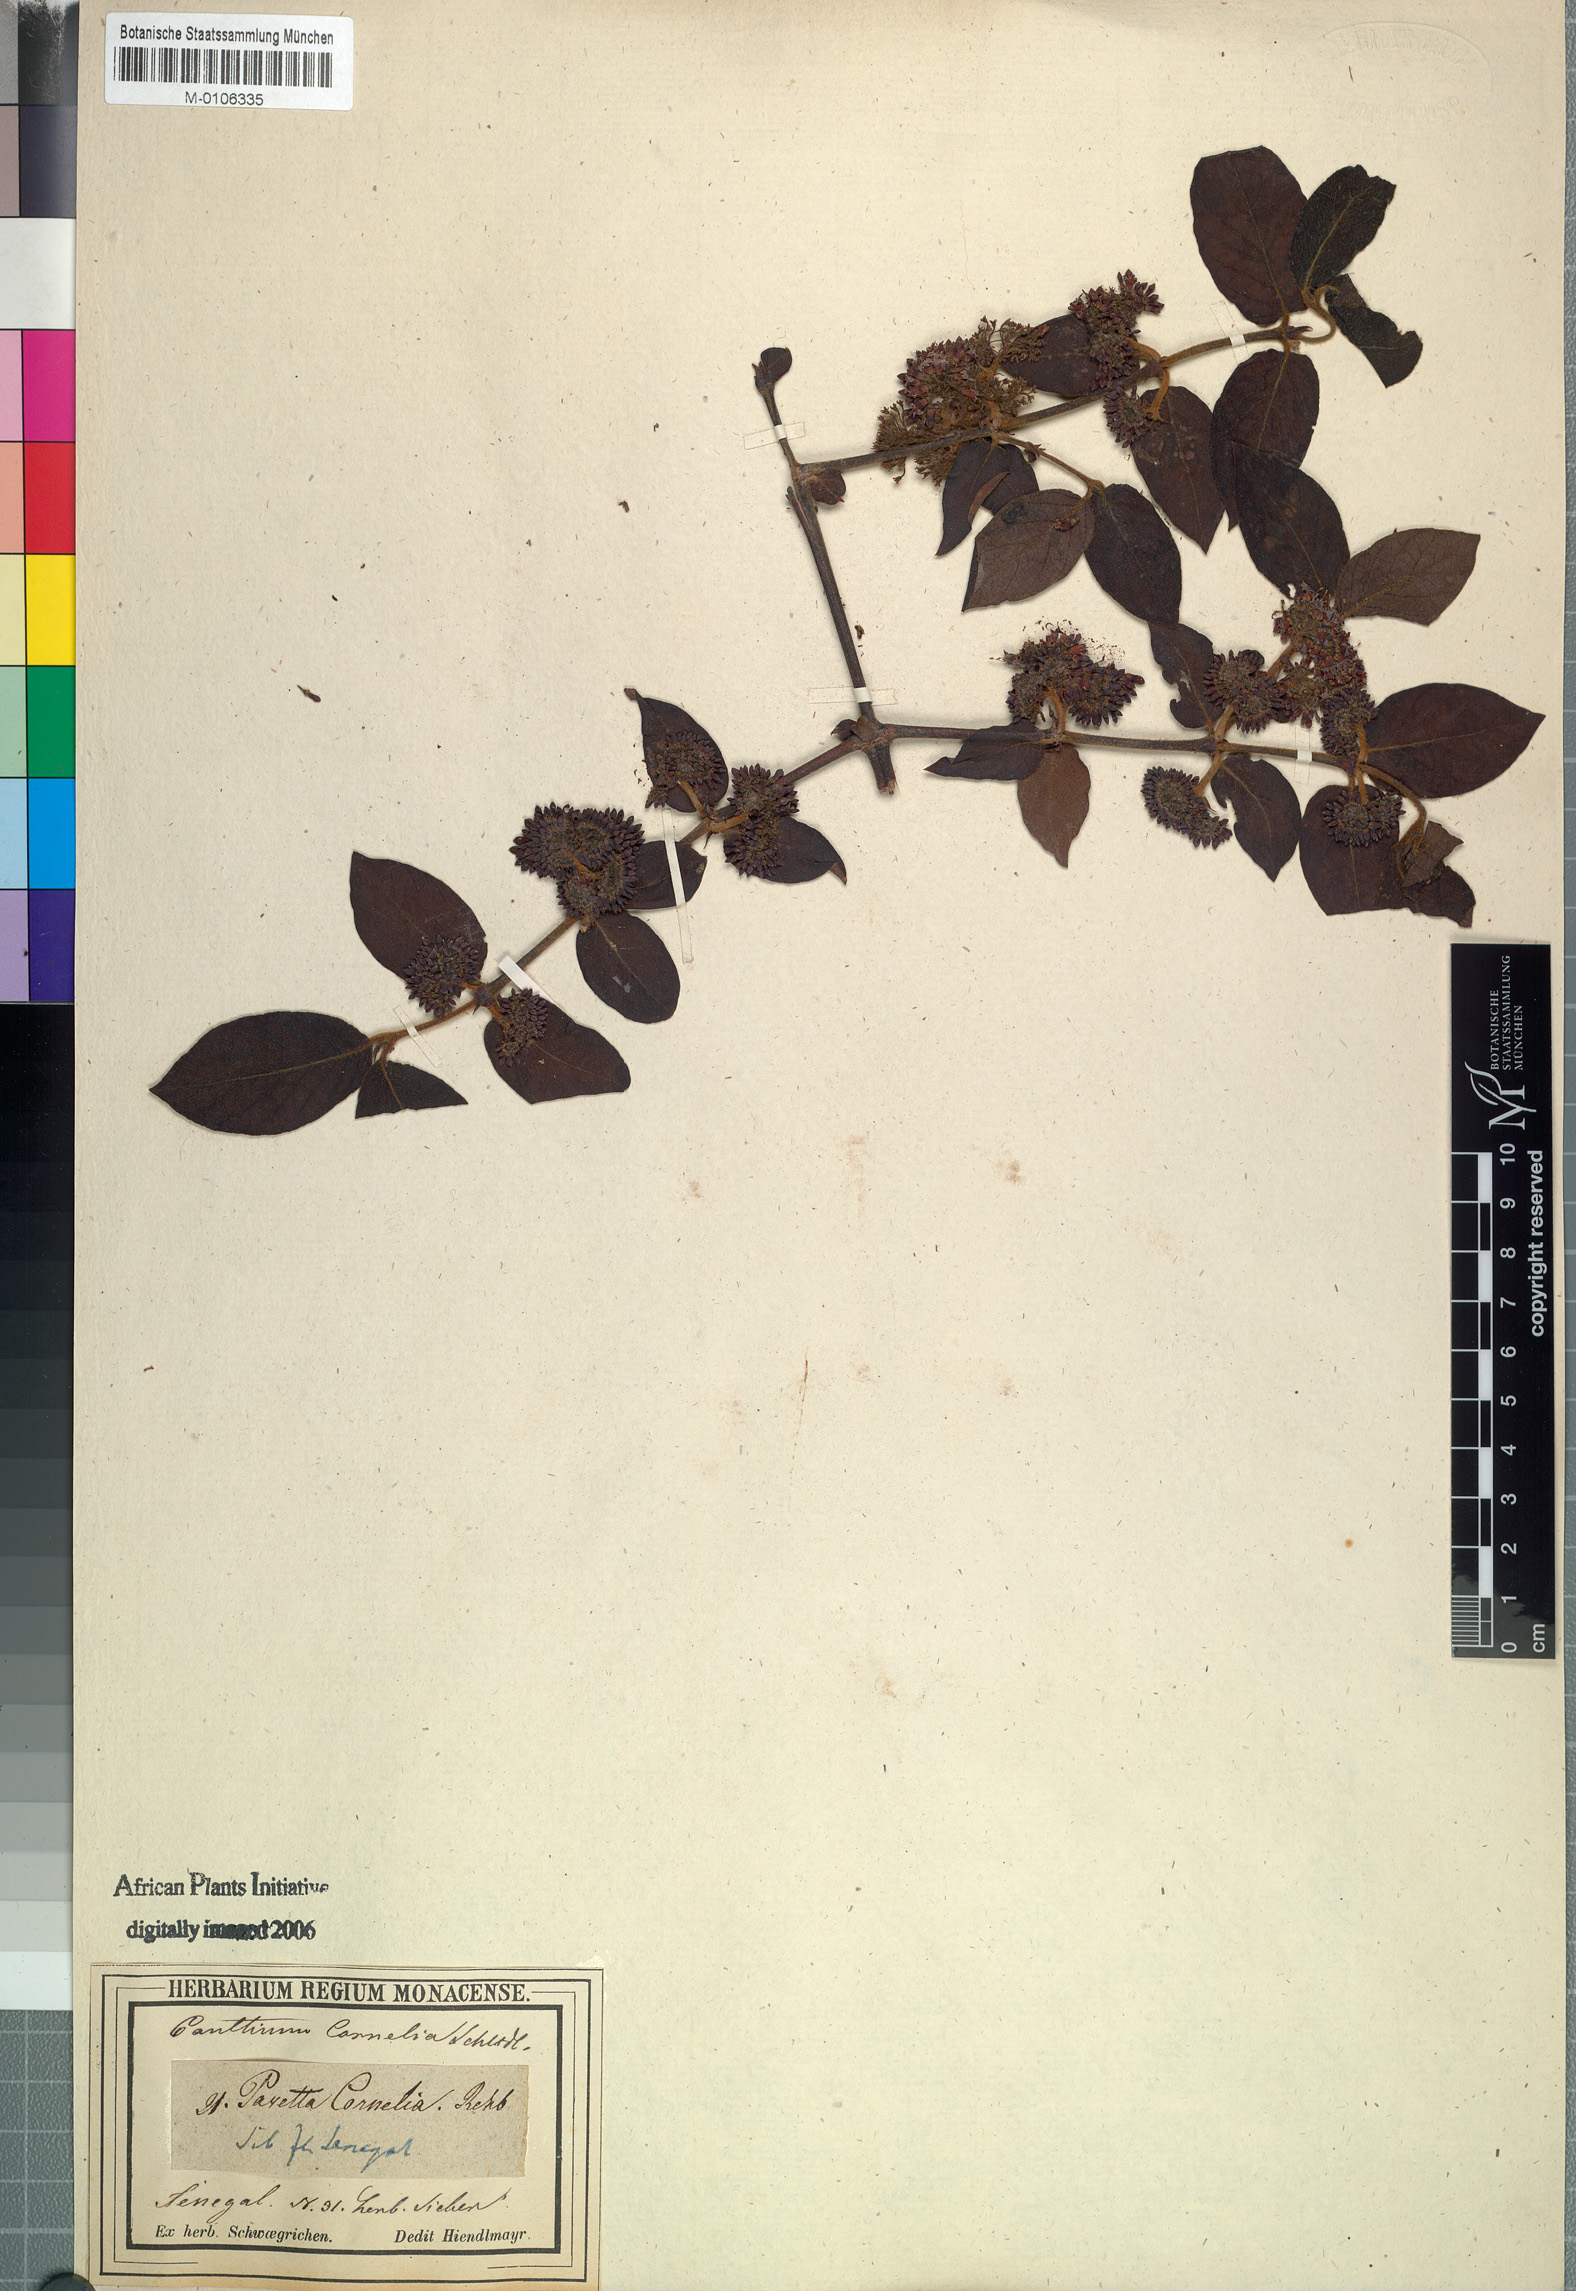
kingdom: Plantae
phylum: Tracheophyta
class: Magnoliopsida
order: Gentianales
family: Rubiaceae
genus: Keetia
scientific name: Keetia cornelia
